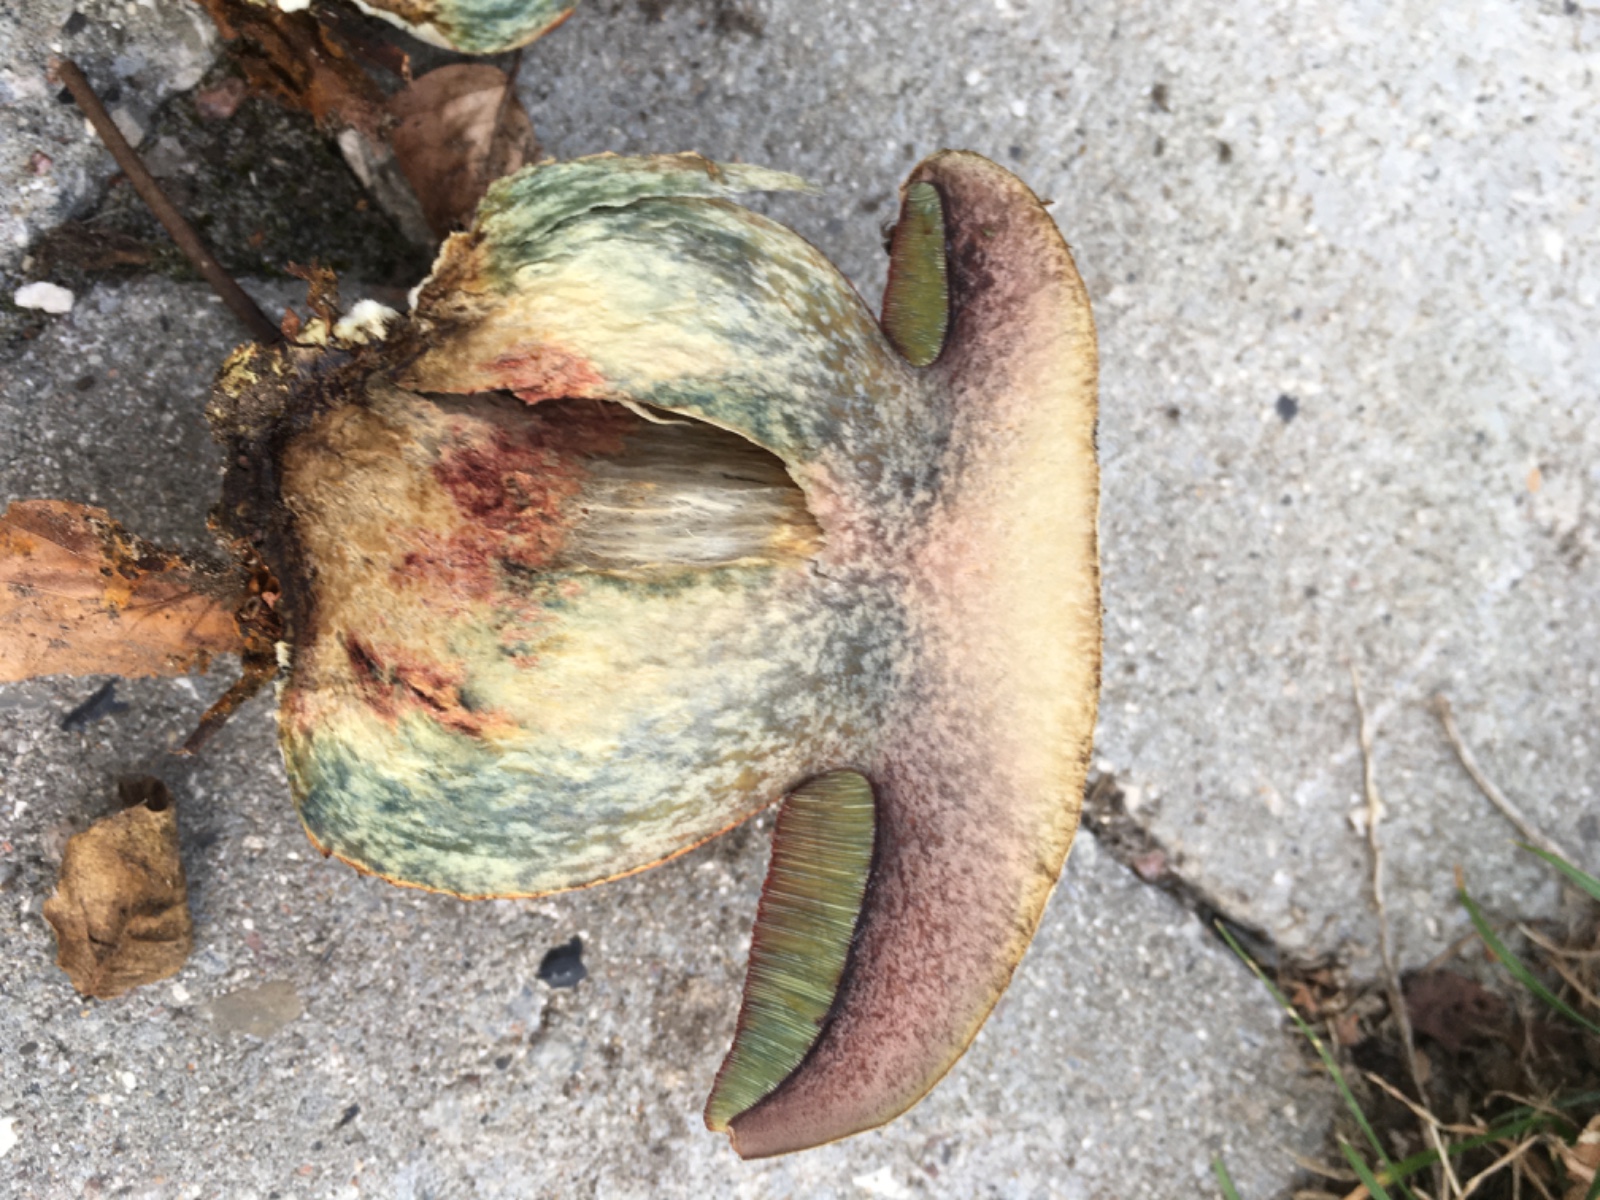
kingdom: Fungi
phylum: Basidiomycota
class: Agaricomycetes
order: Boletales
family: Boletaceae
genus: Suillellus
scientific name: Suillellus luridus
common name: netstokket indigorørhat
